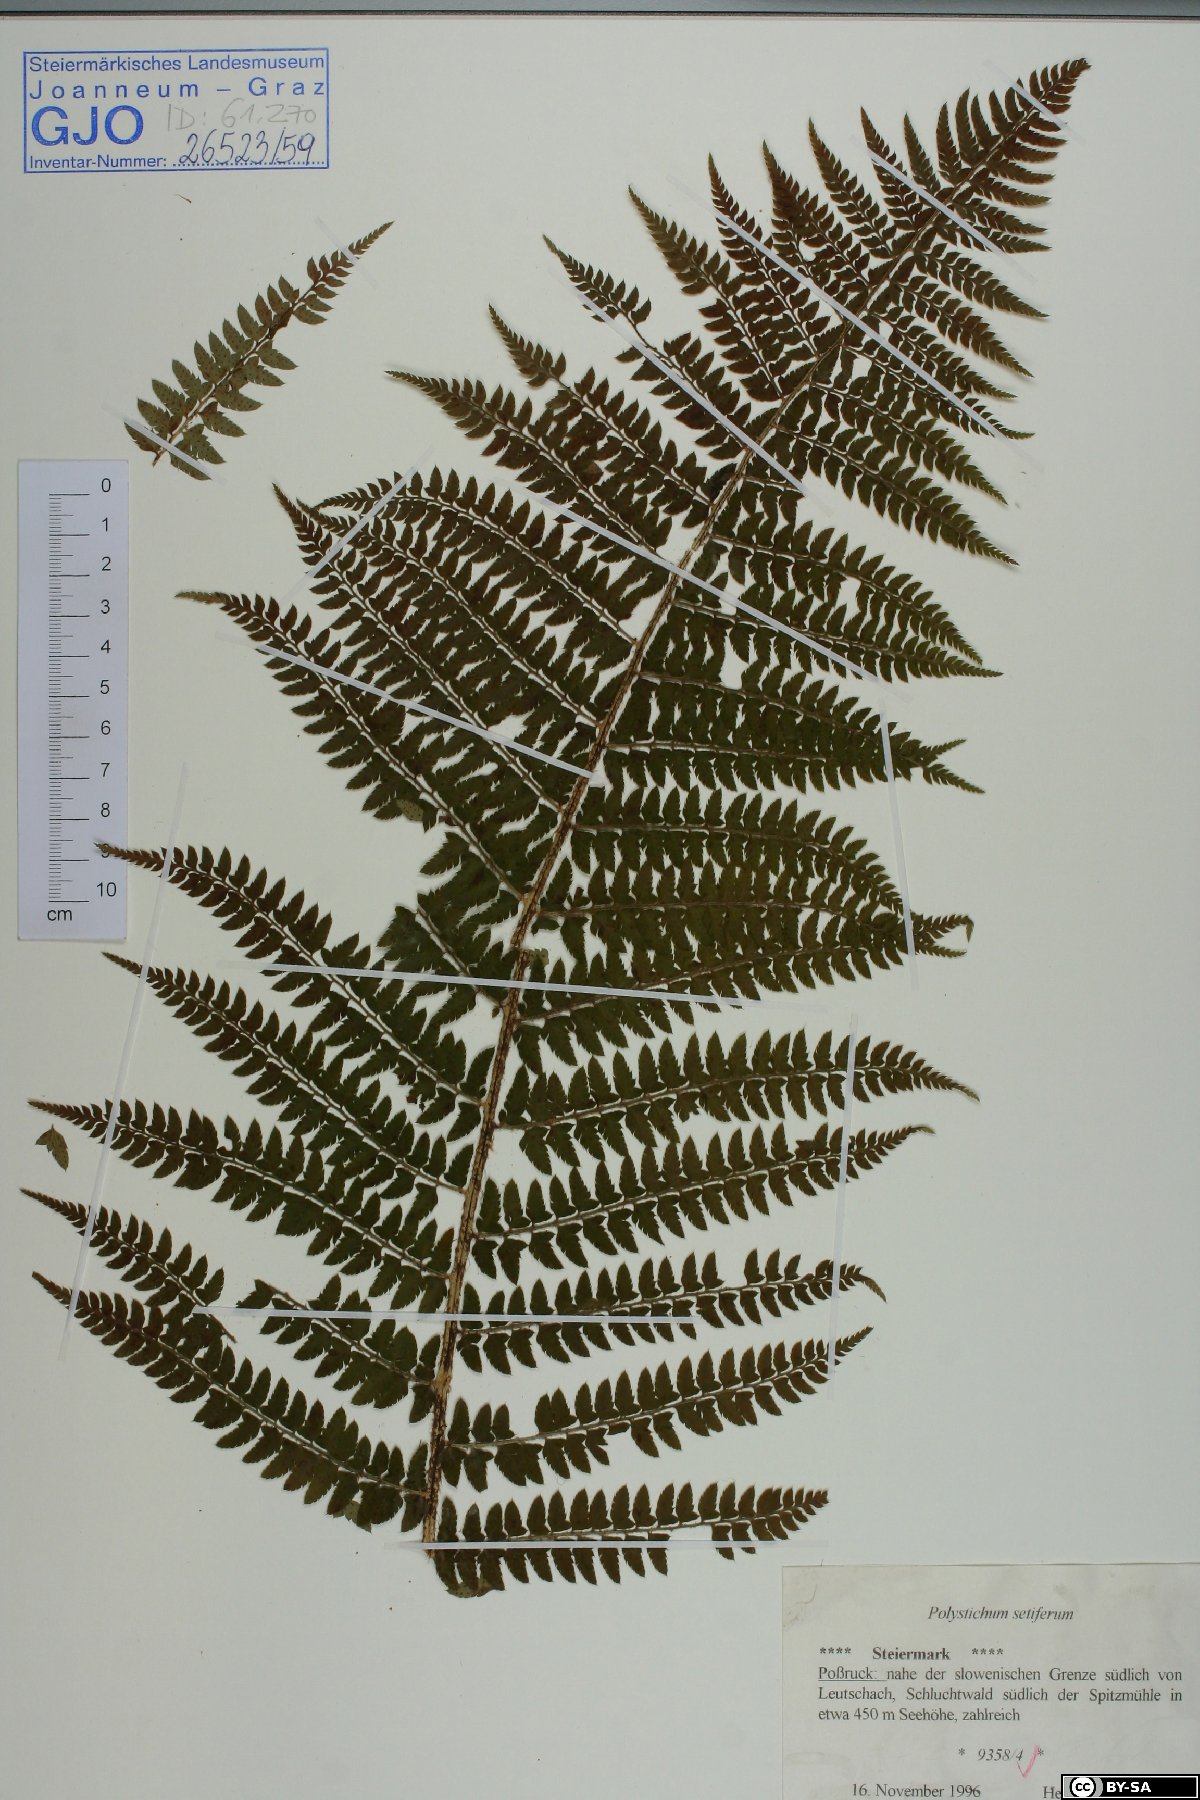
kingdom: Plantae
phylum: Tracheophyta
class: Polypodiopsida
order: Polypodiales
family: Dryopteridaceae
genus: Polystichum
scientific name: Polystichum setiferum
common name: Soft shield-fern
